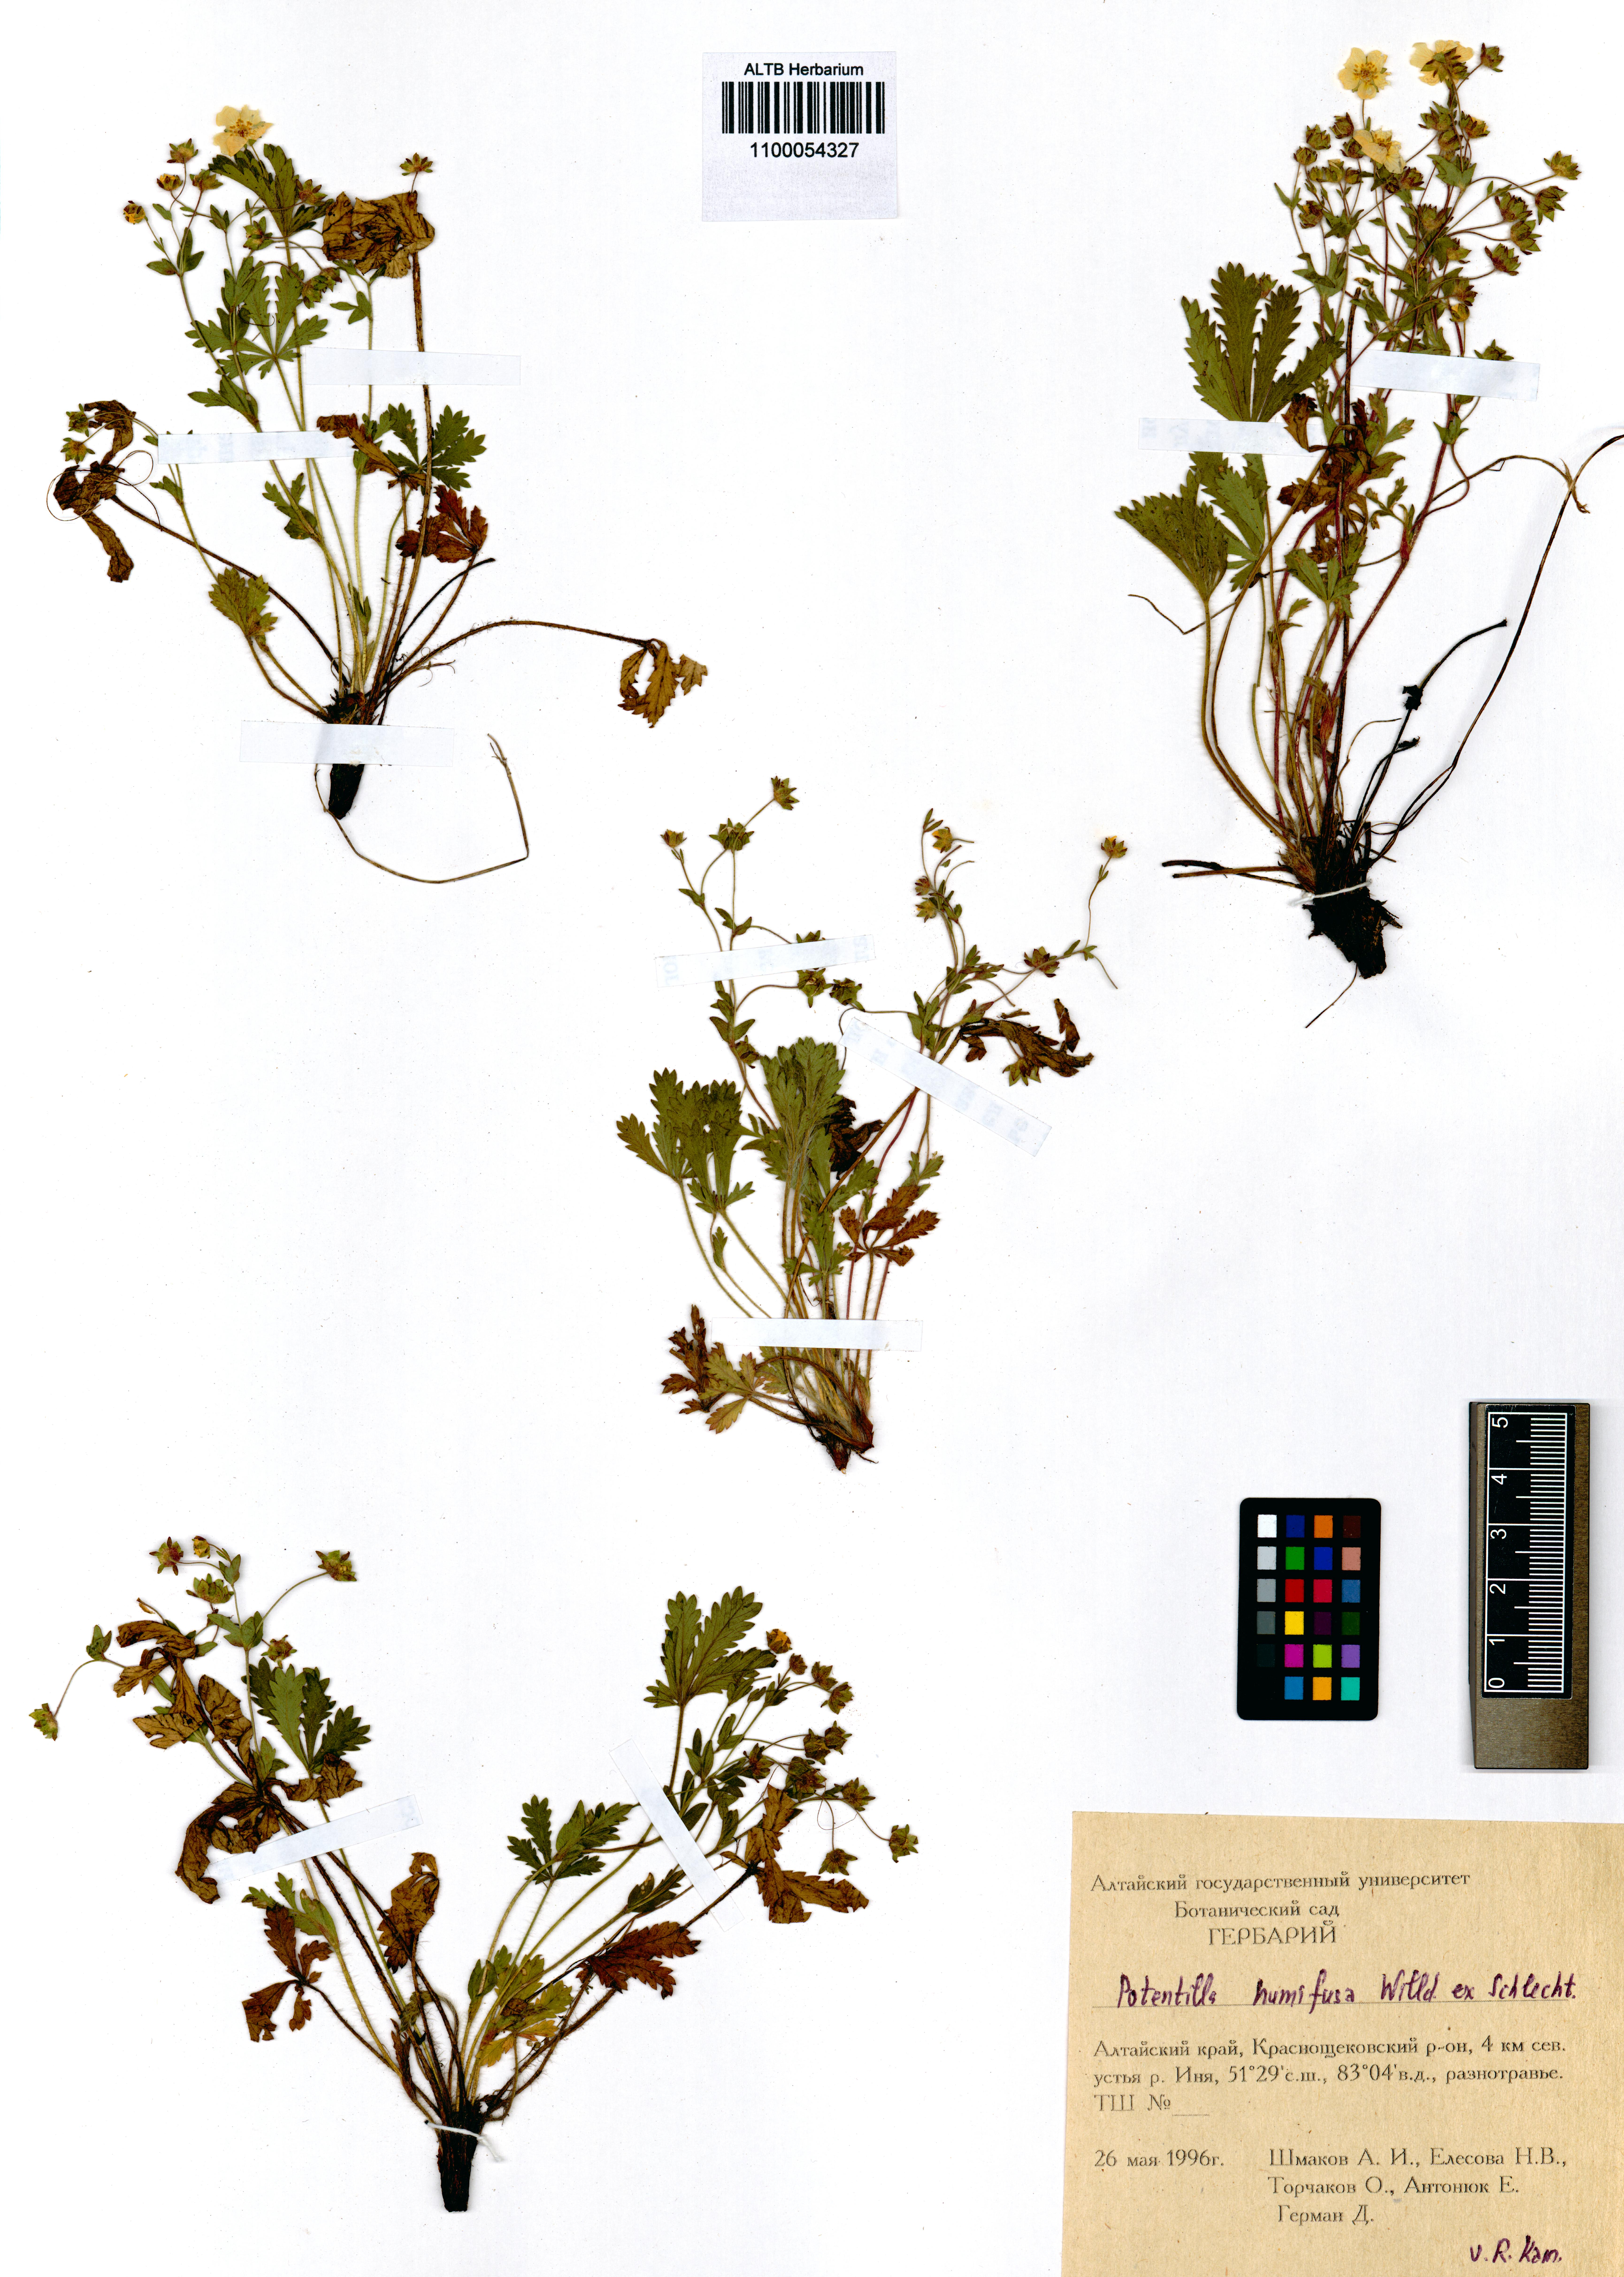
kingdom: Plantae
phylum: Tracheophyta
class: Magnoliopsida
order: Rosales
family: Rosaceae
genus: Potentilla
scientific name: Potentilla humifusa
